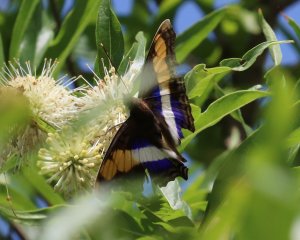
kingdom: Animalia
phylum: Arthropoda
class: Insecta
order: Lepidoptera
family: Nymphalidae
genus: Doxocopa
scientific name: Doxocopa laure
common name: Silver Emperor
